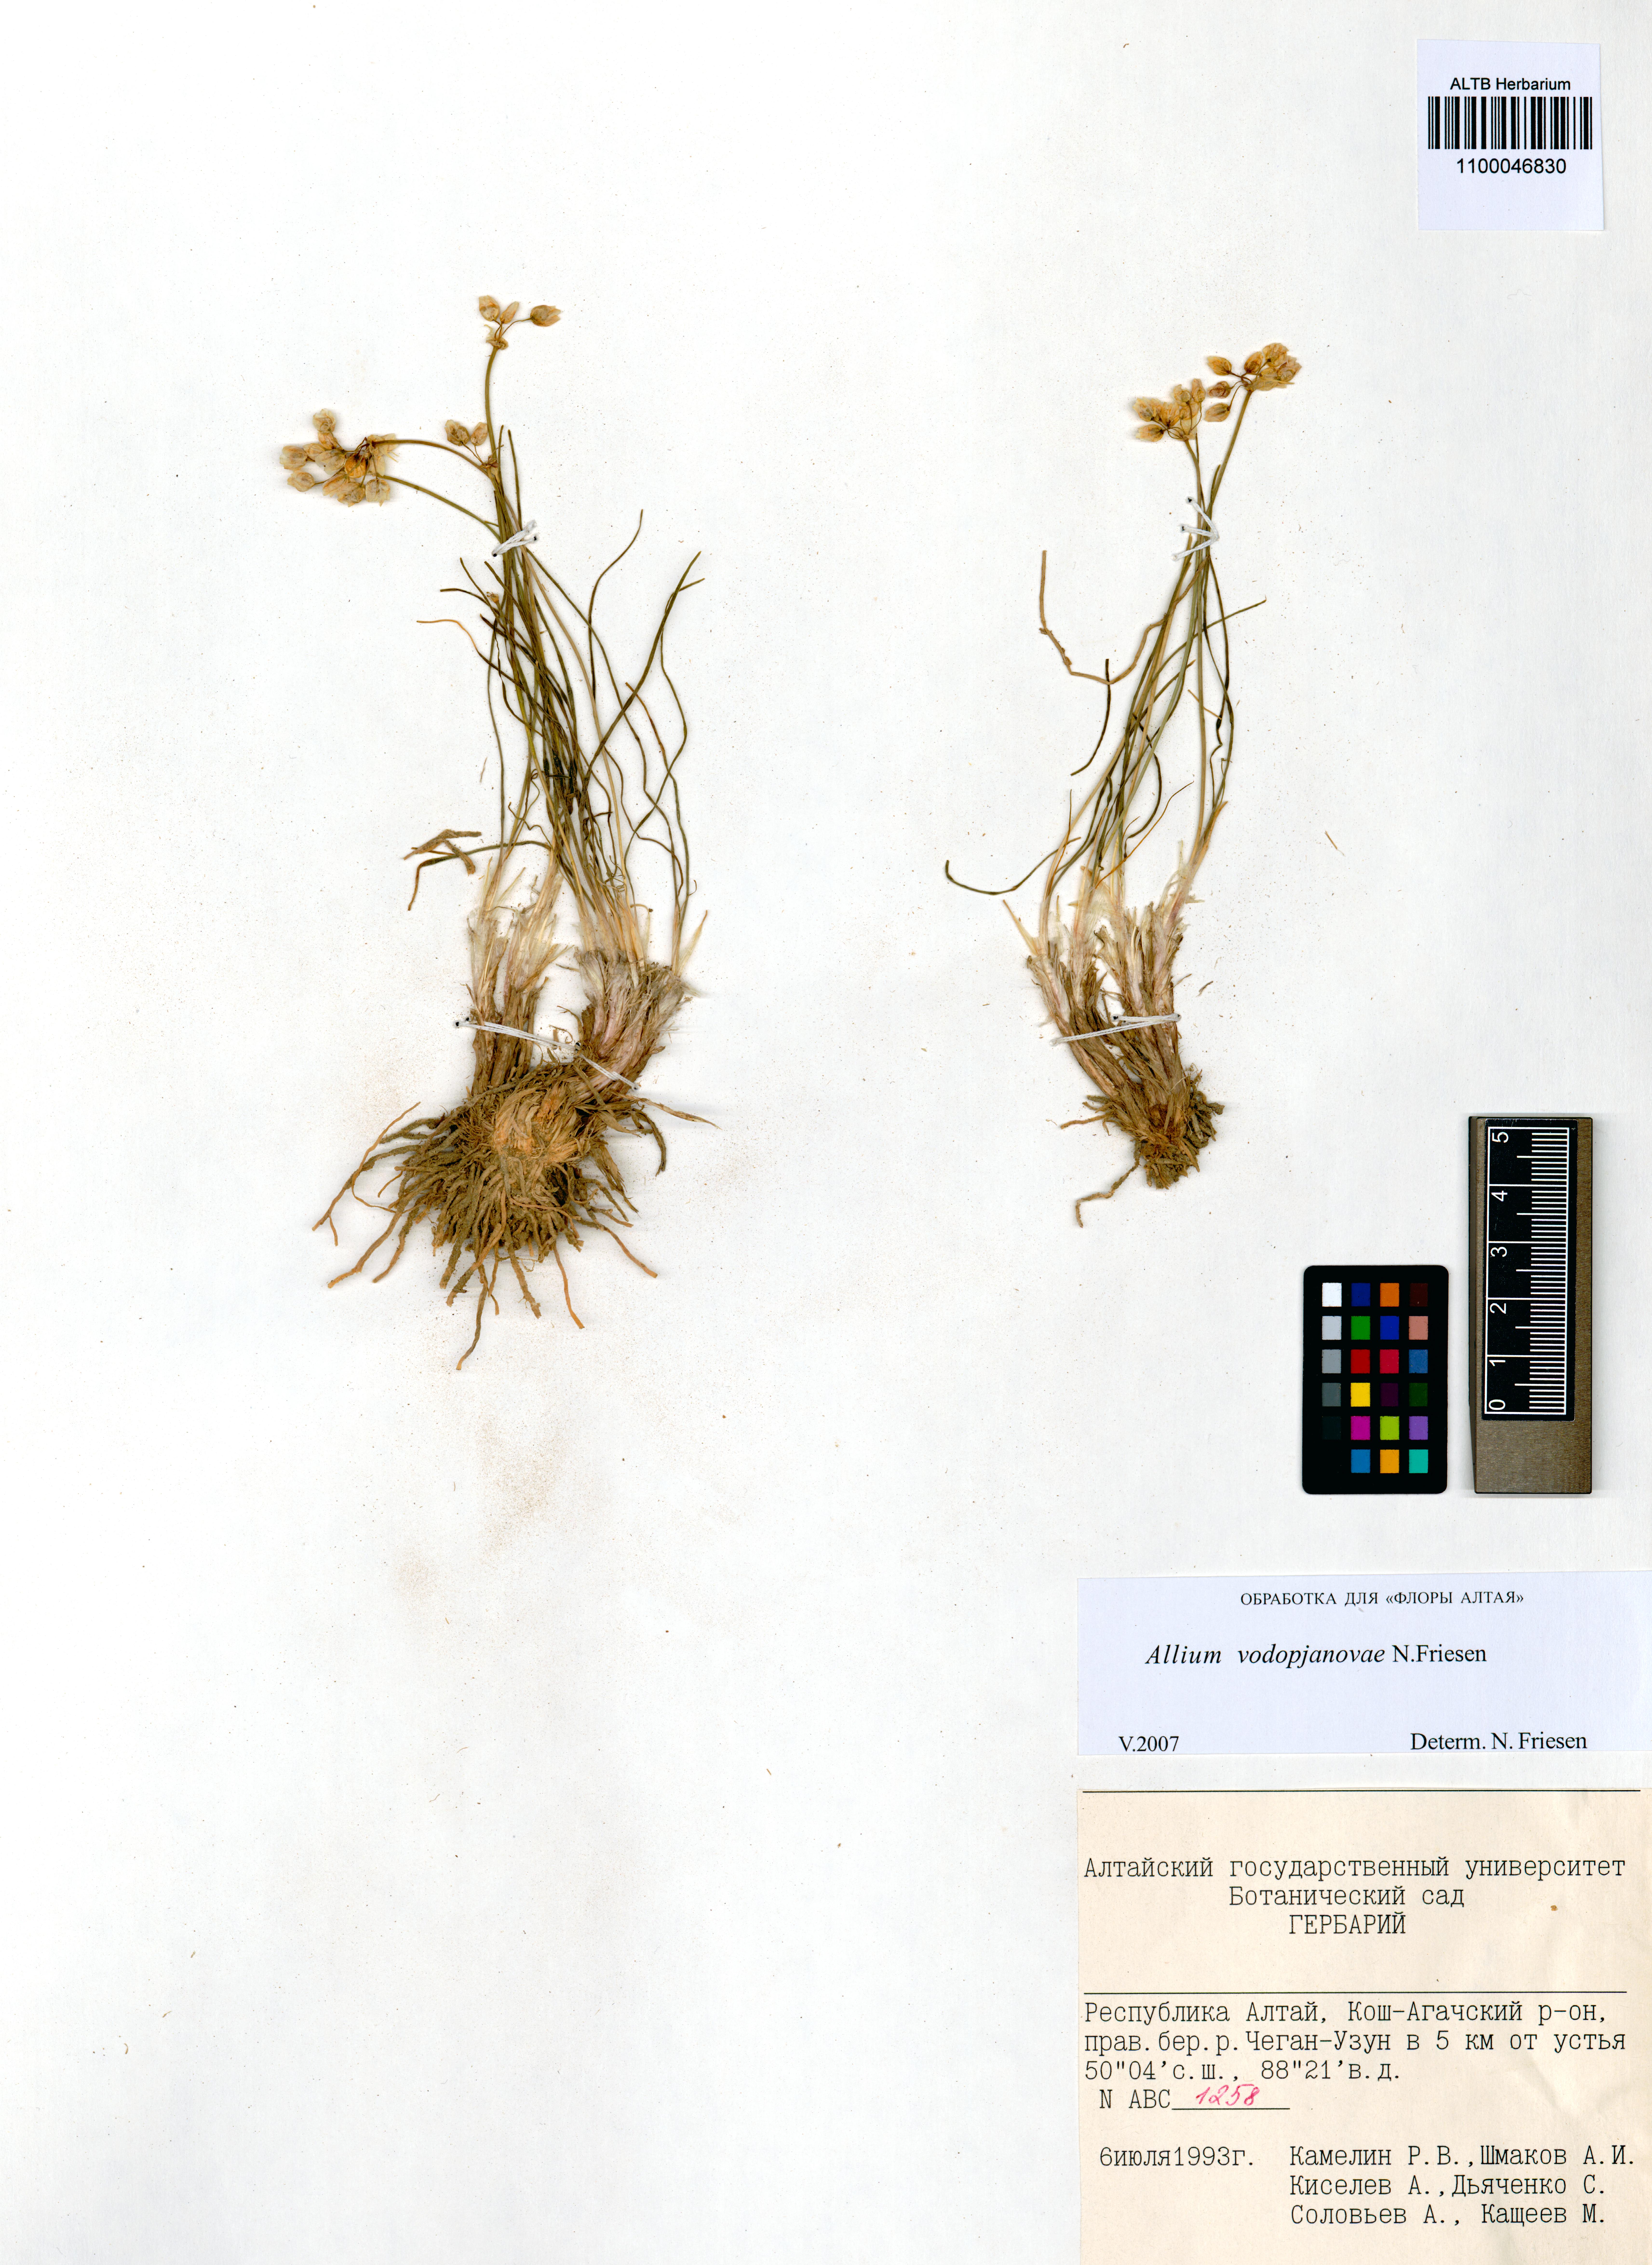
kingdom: Plantae
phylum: Tracheophyta
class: Liliopsida
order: Asparagales
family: Amaryllidaceae
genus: Allium
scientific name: Allium vodopjanovae
